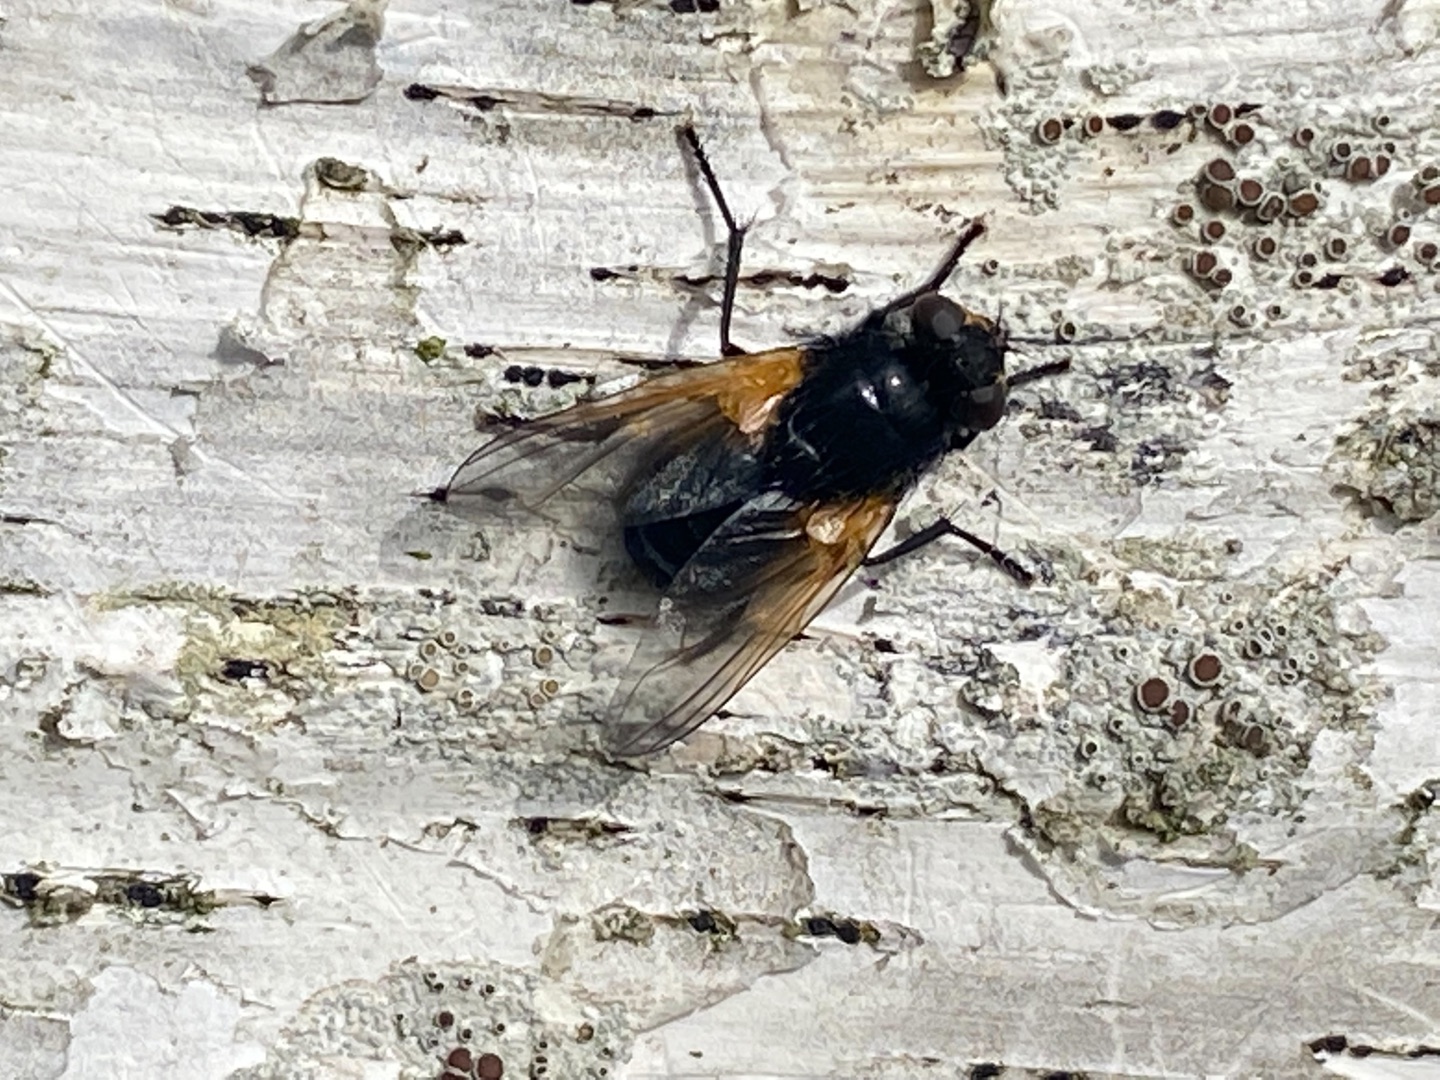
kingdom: Animalia
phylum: Arthropoda
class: Insecta
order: Diptera
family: Muscidae
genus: Mesembrina
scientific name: Mesembrina meridiana
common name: Gulvinget flue
